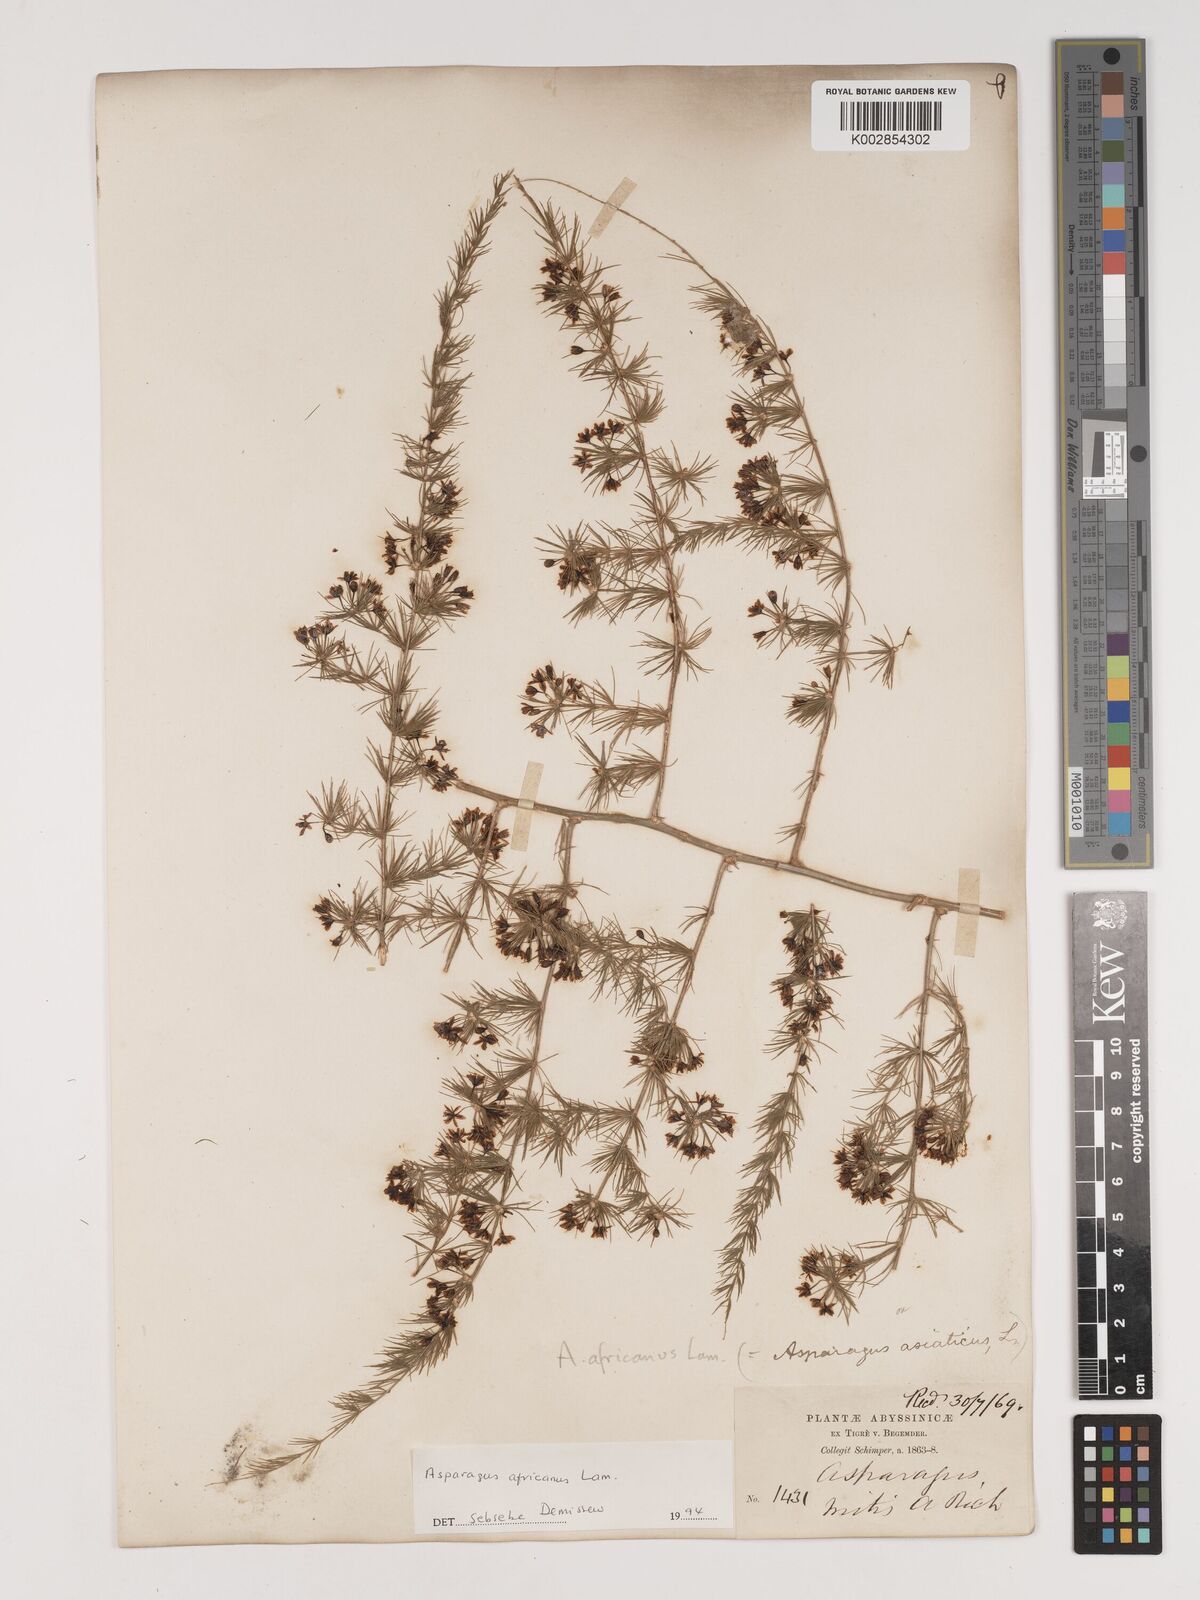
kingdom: Plantae
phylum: Tracheophyta
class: Liliopsida
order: Asparagales
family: Asparagaceae
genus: Asparagus
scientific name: Asparagus africanus
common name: Asparagus-fern
